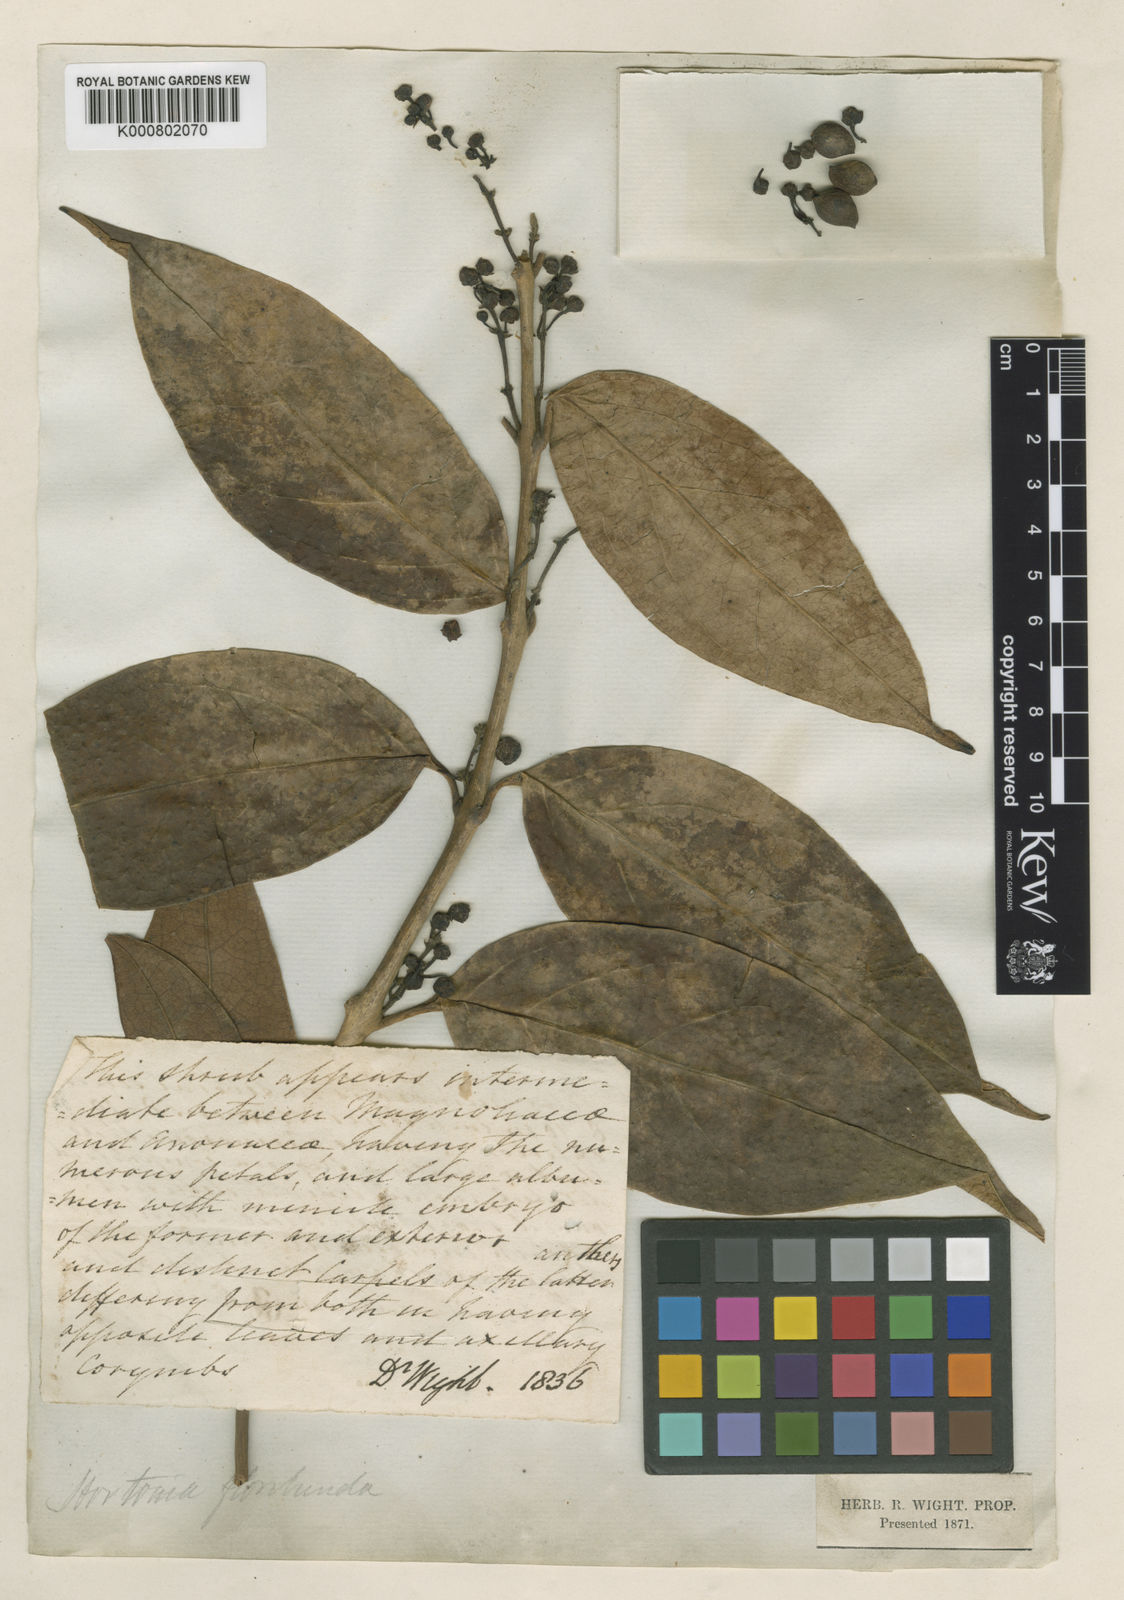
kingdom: Plantae
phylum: Tracheophyta
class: Magnoliopsida
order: Laurales
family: Monimiaceae
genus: Hortonia
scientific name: Hortonia floribunda
